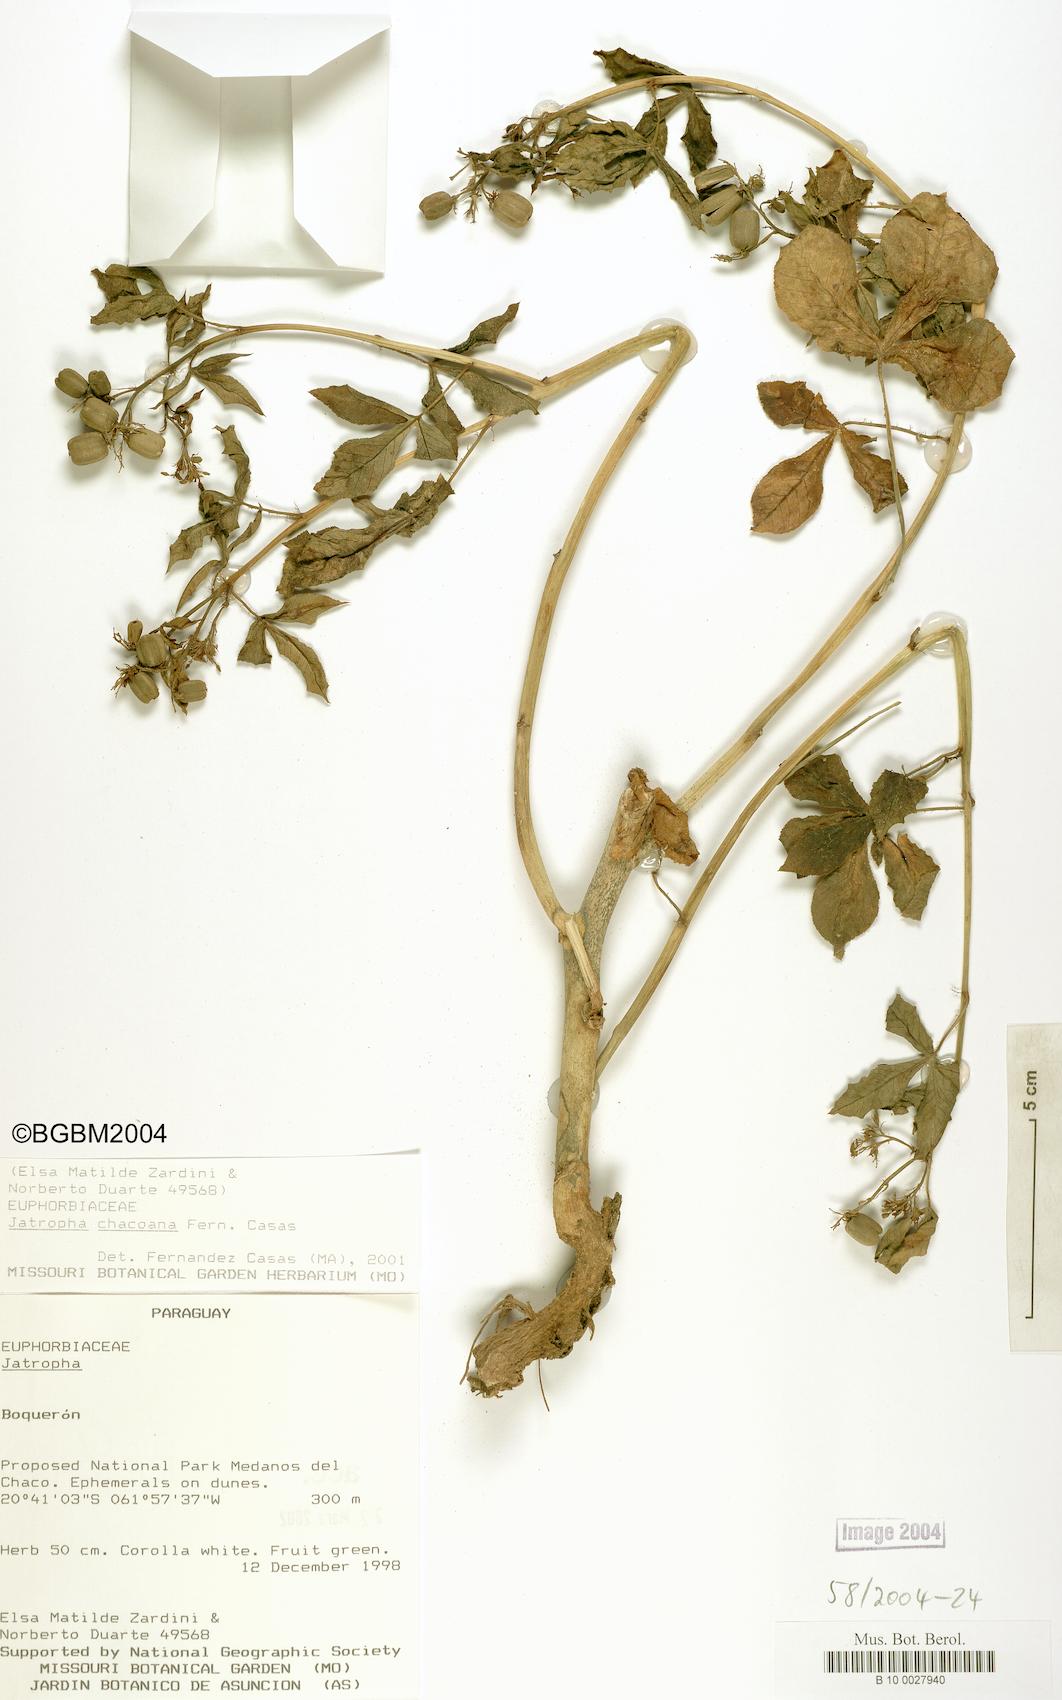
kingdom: Plantae
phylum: Tracheophyta
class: Magnoliopsida
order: Malpighiales
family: Euphorbiaceae
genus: Jatropha
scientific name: Jatropha peiranoi
